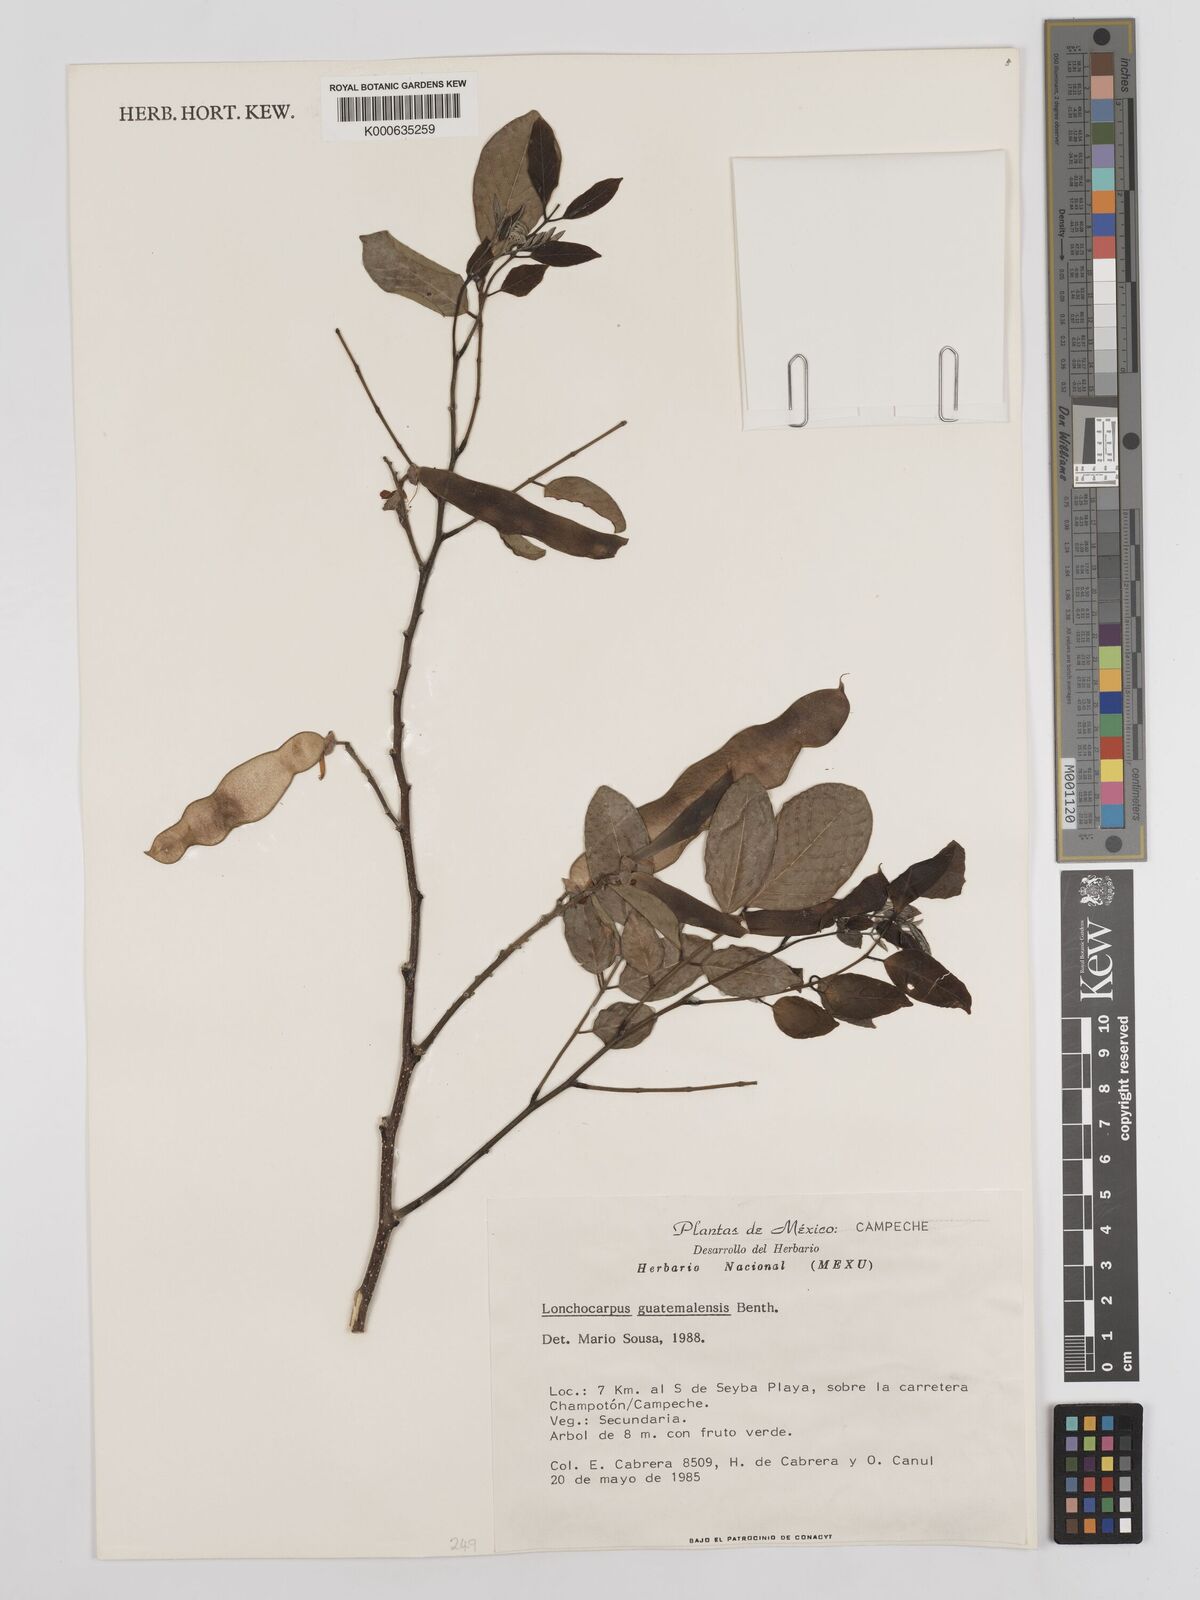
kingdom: Plantae
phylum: Tracheophyta
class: Magnoliopsida
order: Fabales
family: Fabaceae
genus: Lonchocarpus
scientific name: Lonchocarpus guatemalensis
